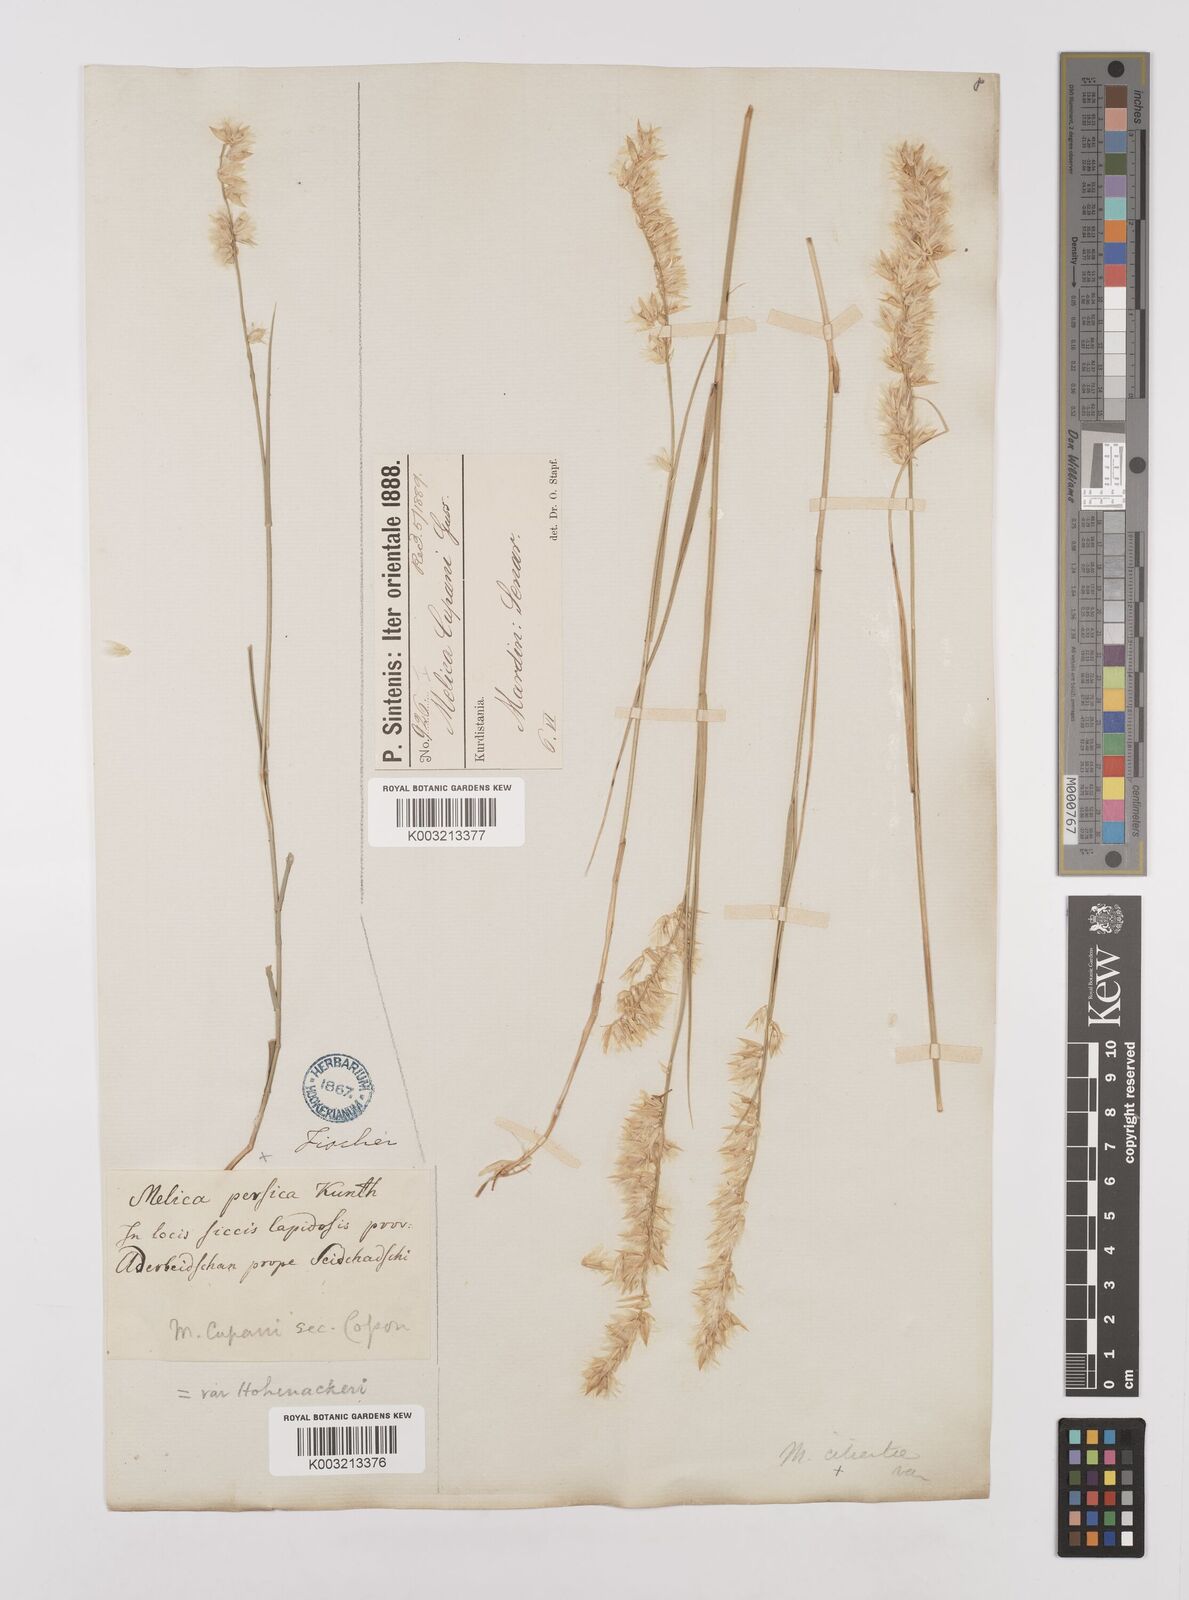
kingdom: Plantae
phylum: Tracheophyta
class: Liliopsida
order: Poales
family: Poaceae
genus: Melica
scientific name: Melica persica
